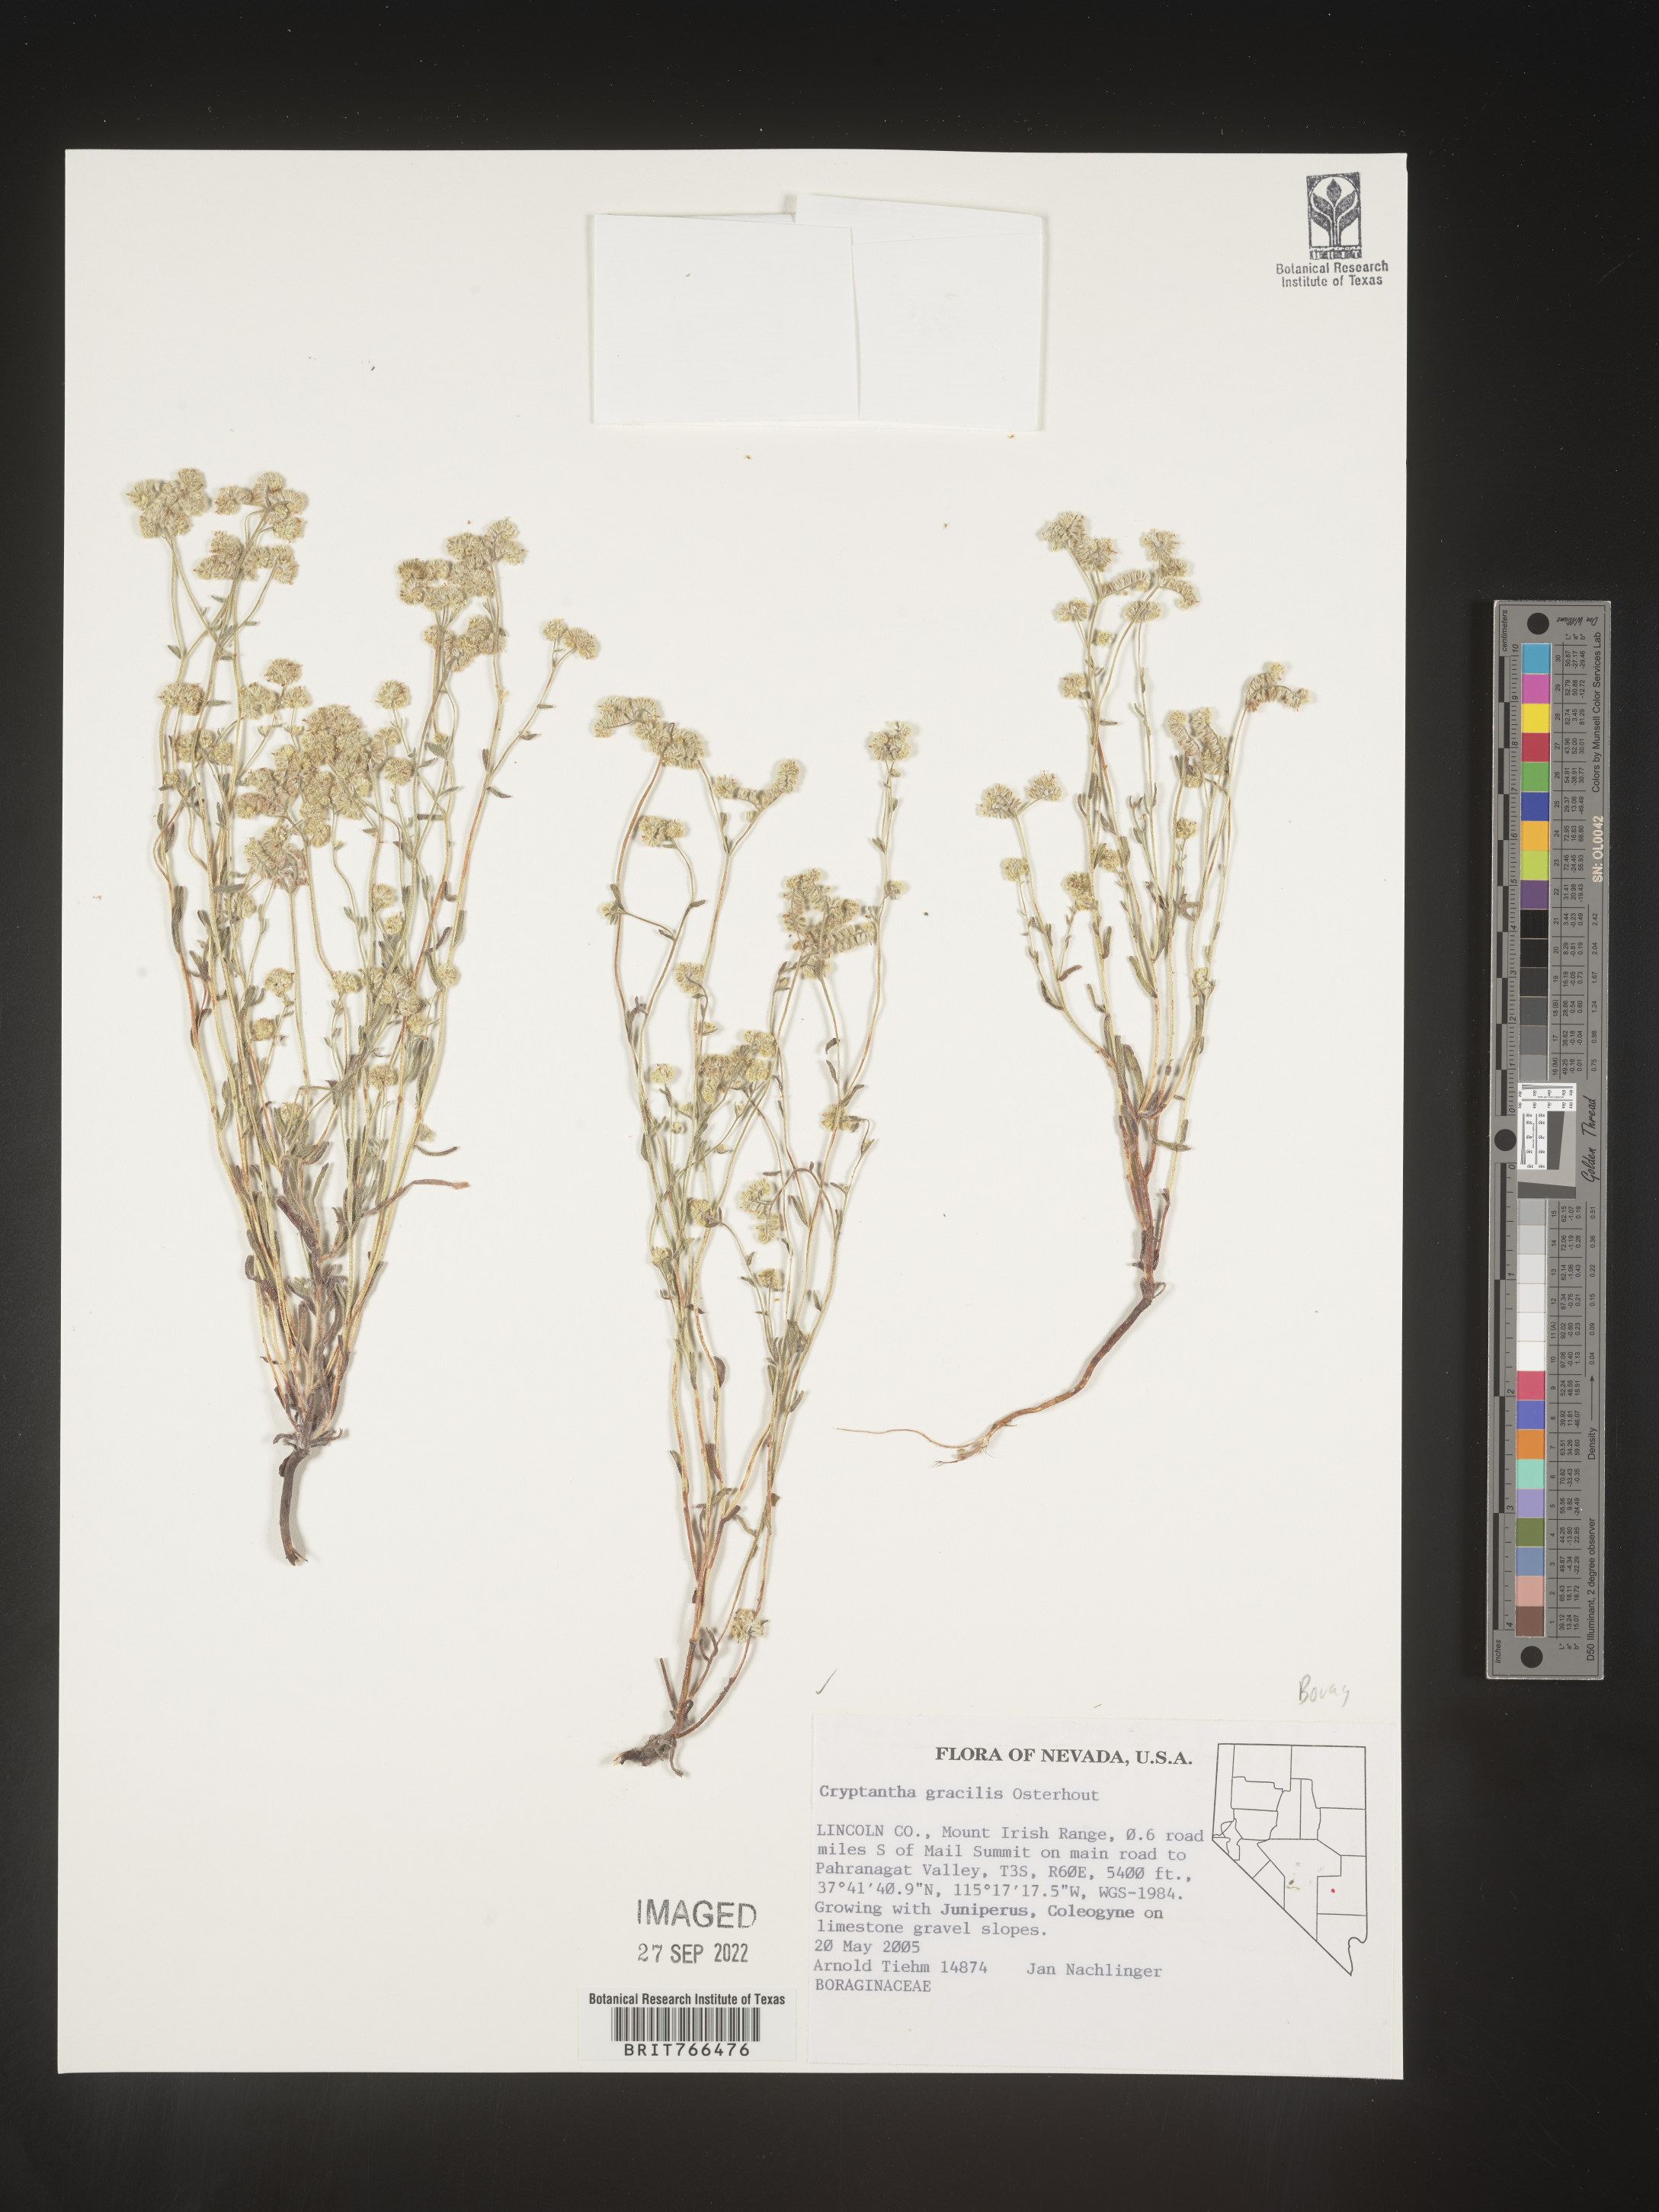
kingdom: Plantae
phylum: Tracheophyta
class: Magnoliopsida
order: Boraginales
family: Boraginaceae
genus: Cryptantha
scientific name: Cryptantha
